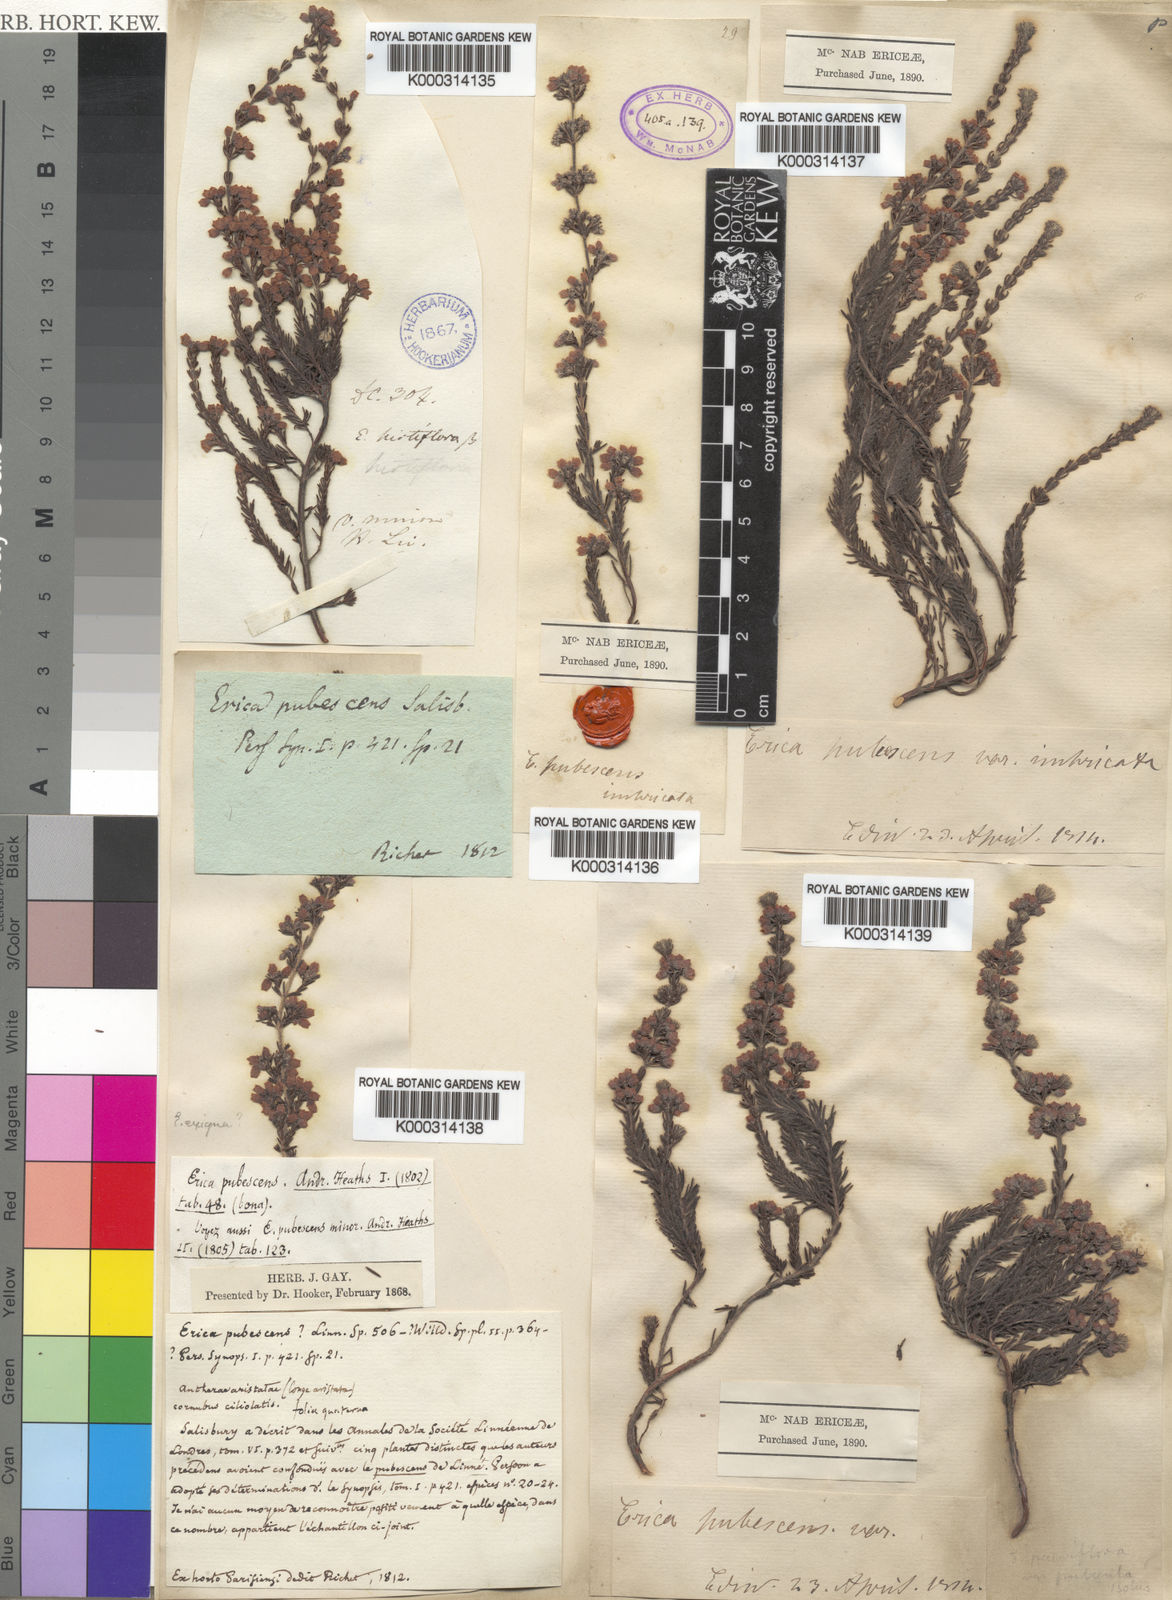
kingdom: Plantae
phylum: Tracheophyta
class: Magnoliopsida
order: Ericales
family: Ericaceae
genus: Erica
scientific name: Erica parviflora
